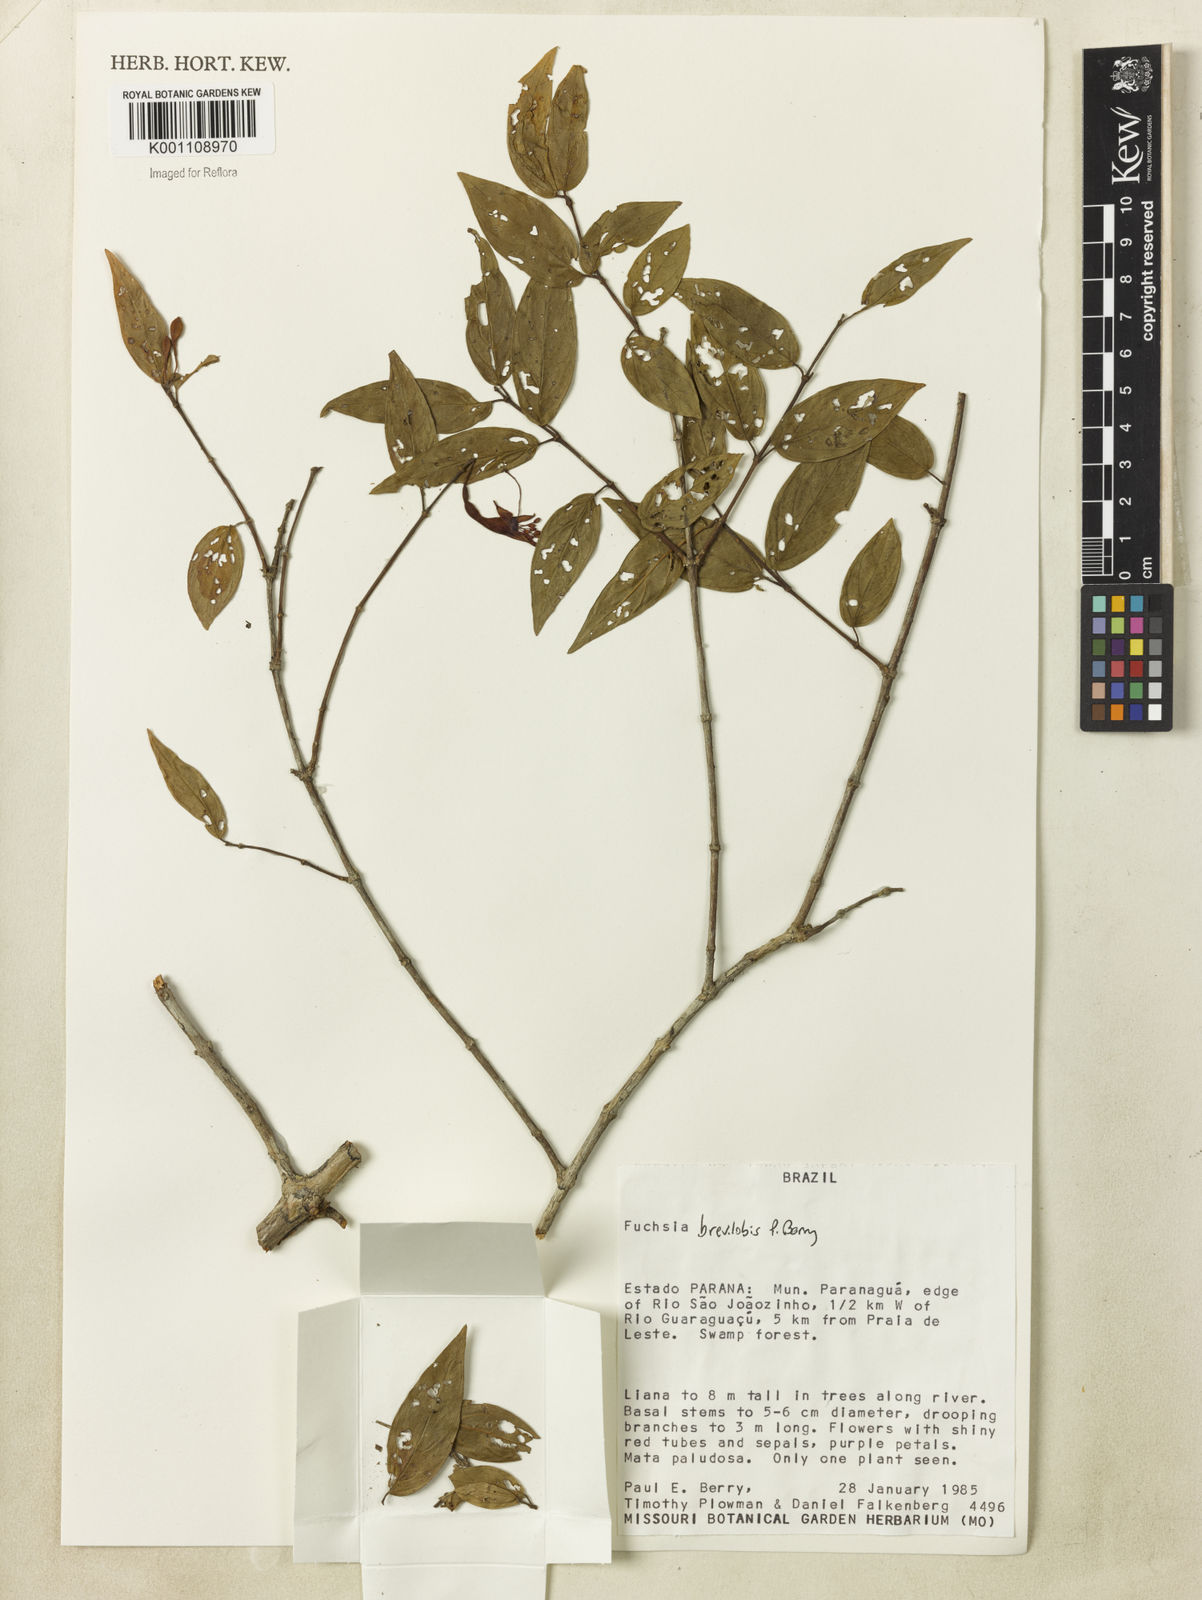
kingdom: Plantae
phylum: Tracheophyta
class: Magnoliopsida
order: Myrtales
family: Onagraceae
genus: Fuchsia
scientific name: Fuchsia brevilobis
